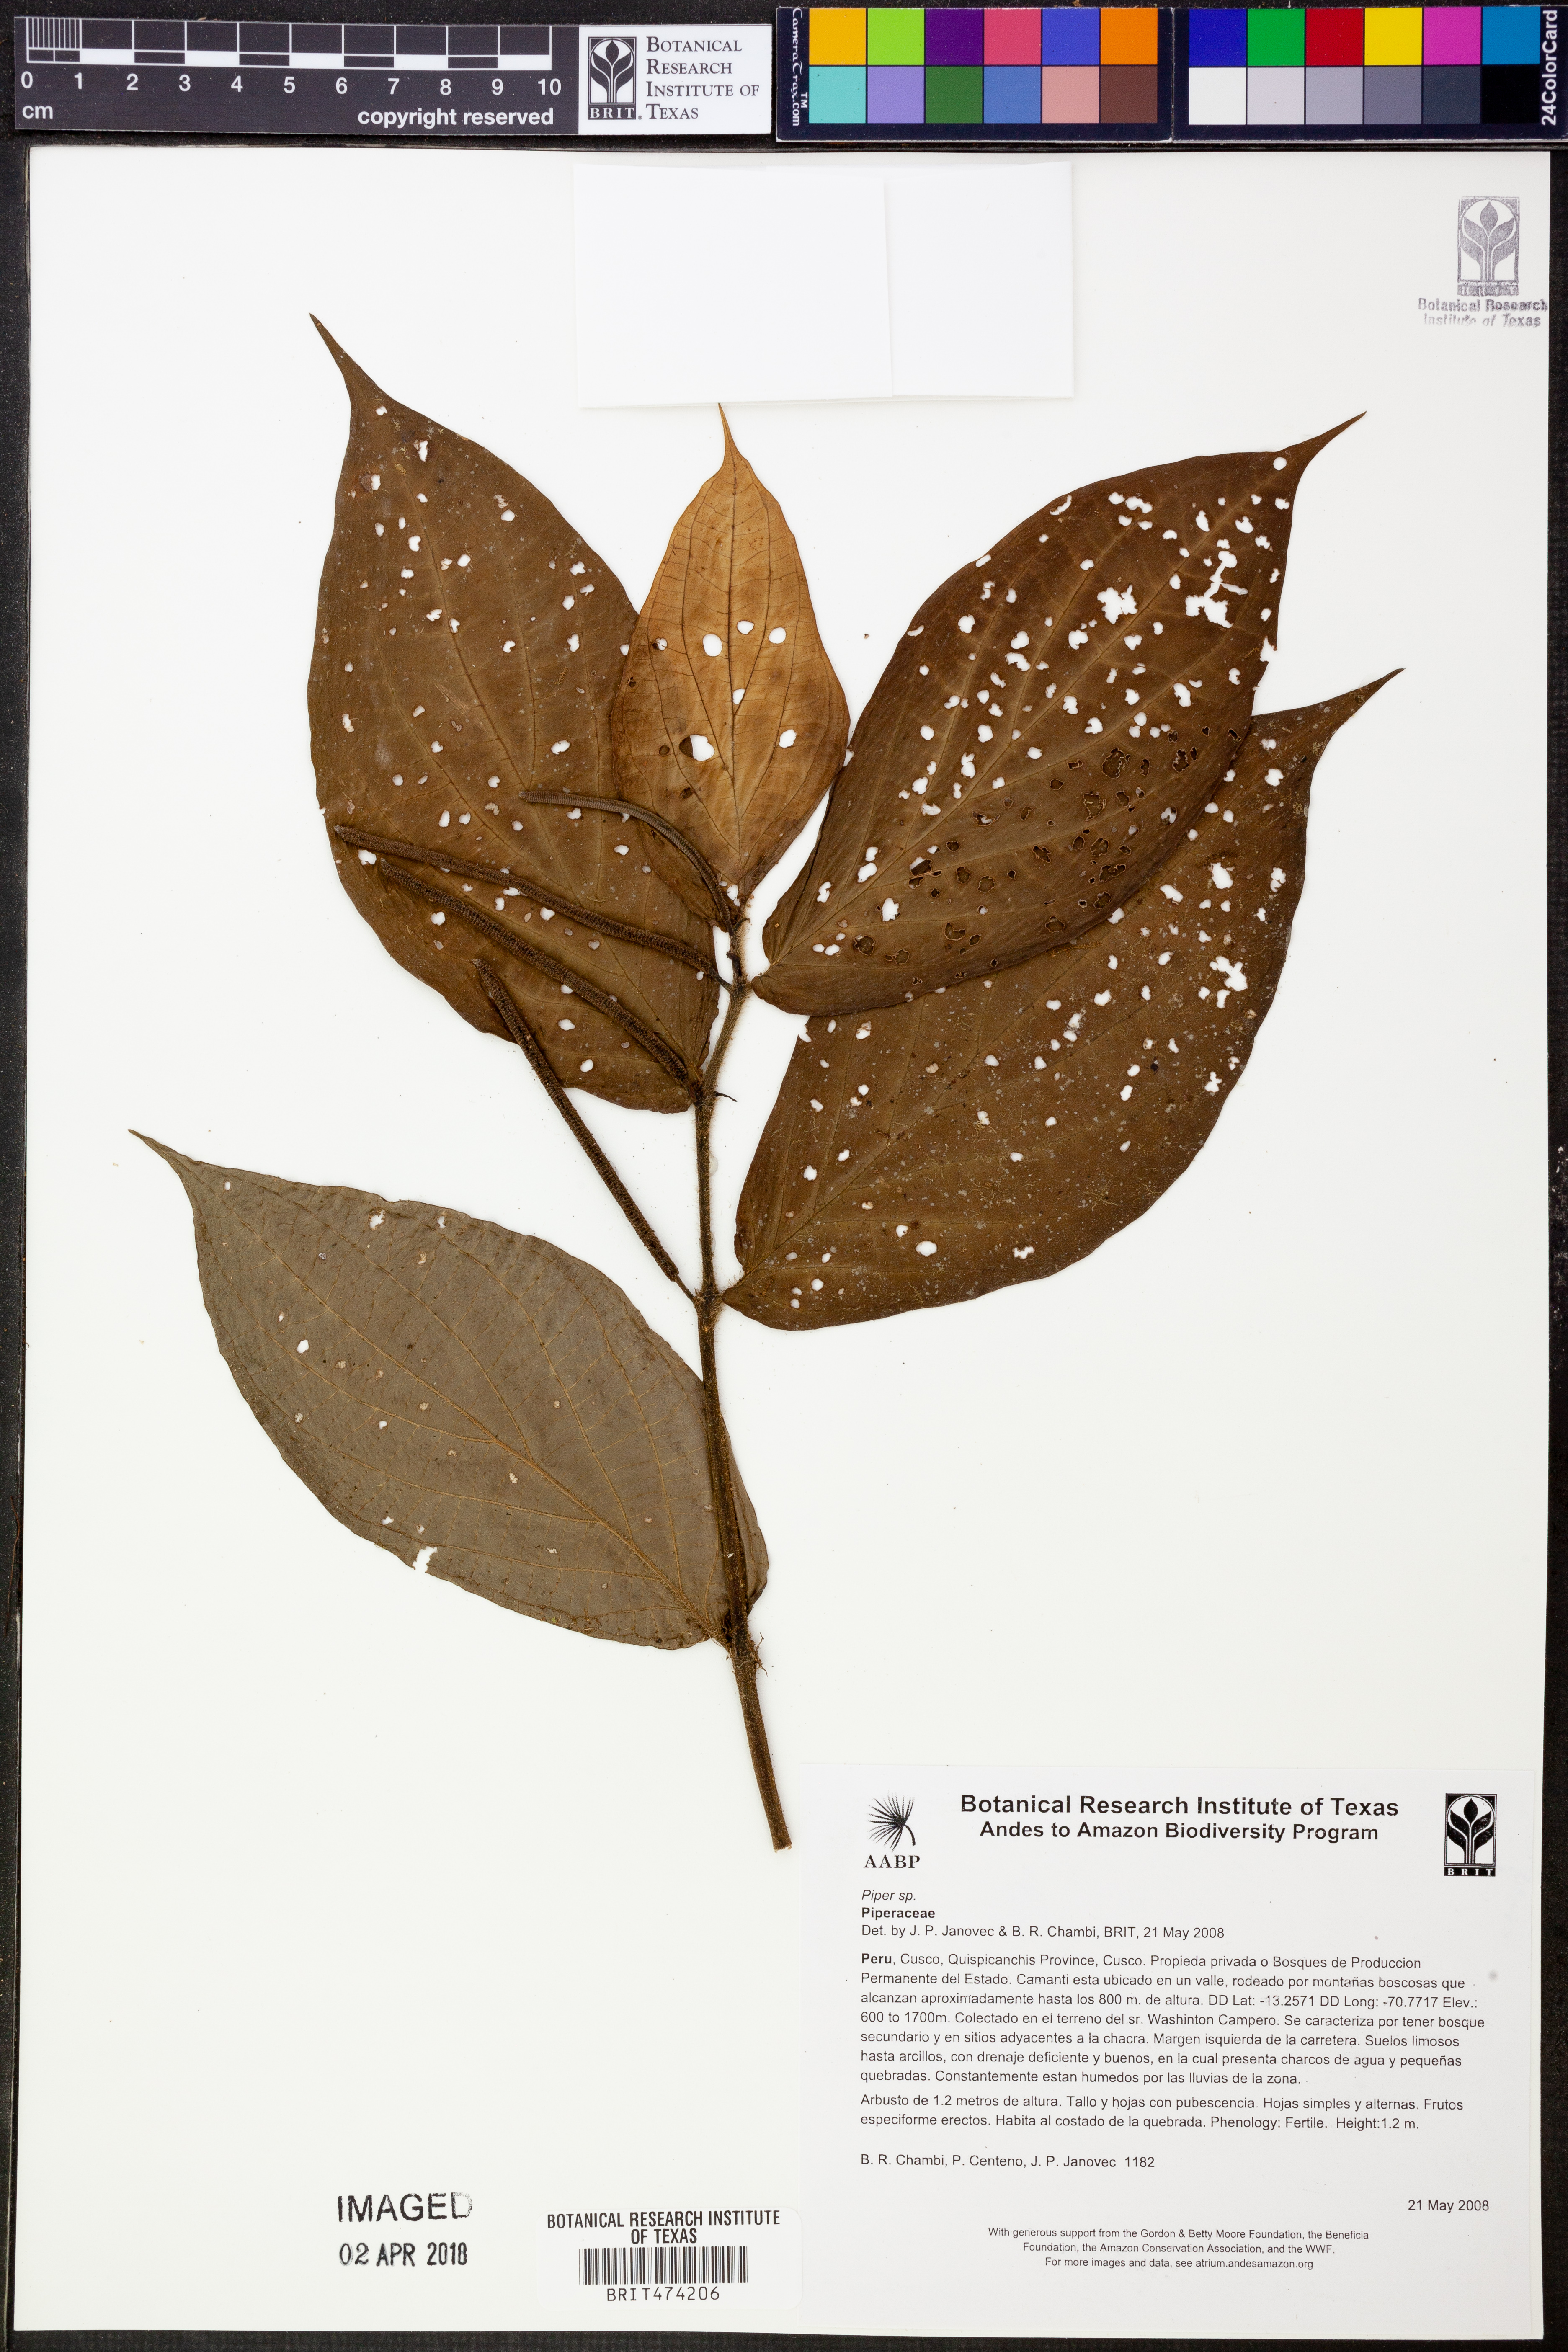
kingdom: Plantae
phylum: Tracheophyta
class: Magnoliopsida
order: Piperales
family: Piperaceae
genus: Piper
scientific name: Piper
